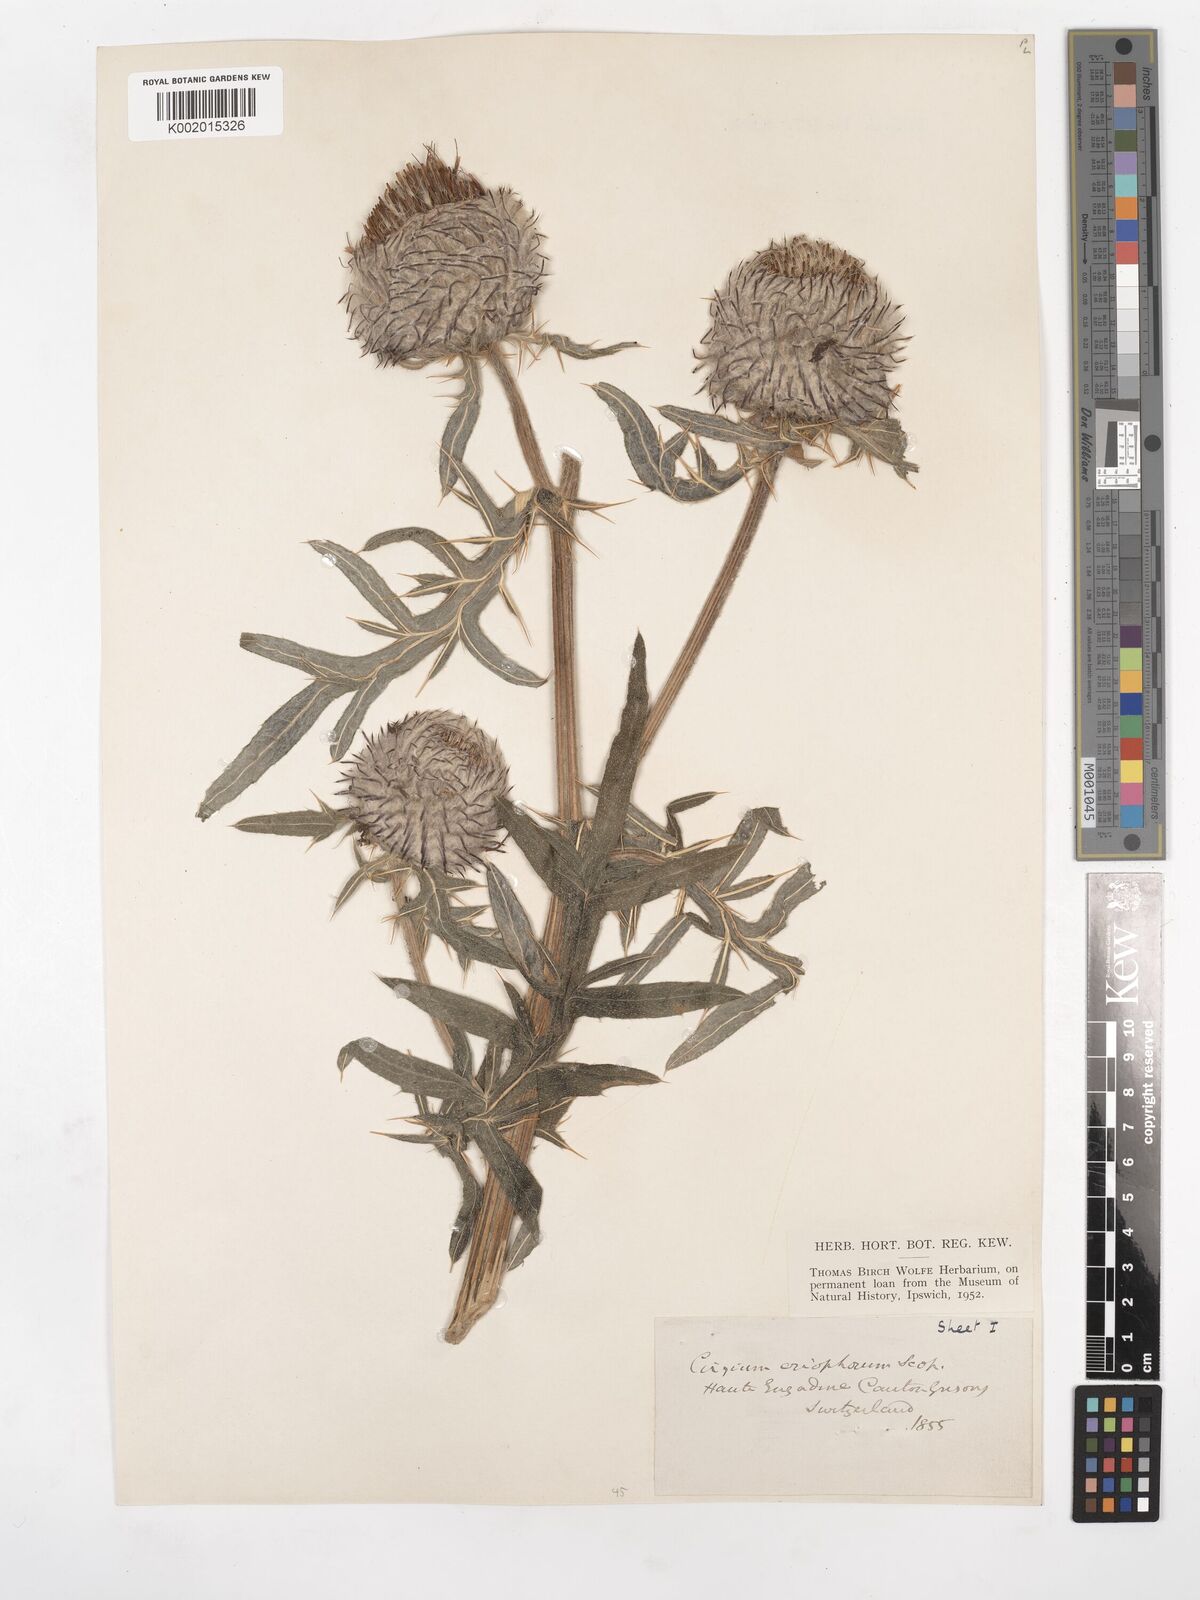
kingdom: Plantae
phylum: Tracheophyta
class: Magnoliopsida
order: Asterales
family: Asteraceae
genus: Lophiolepis
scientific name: Lophiolepis eriophora
